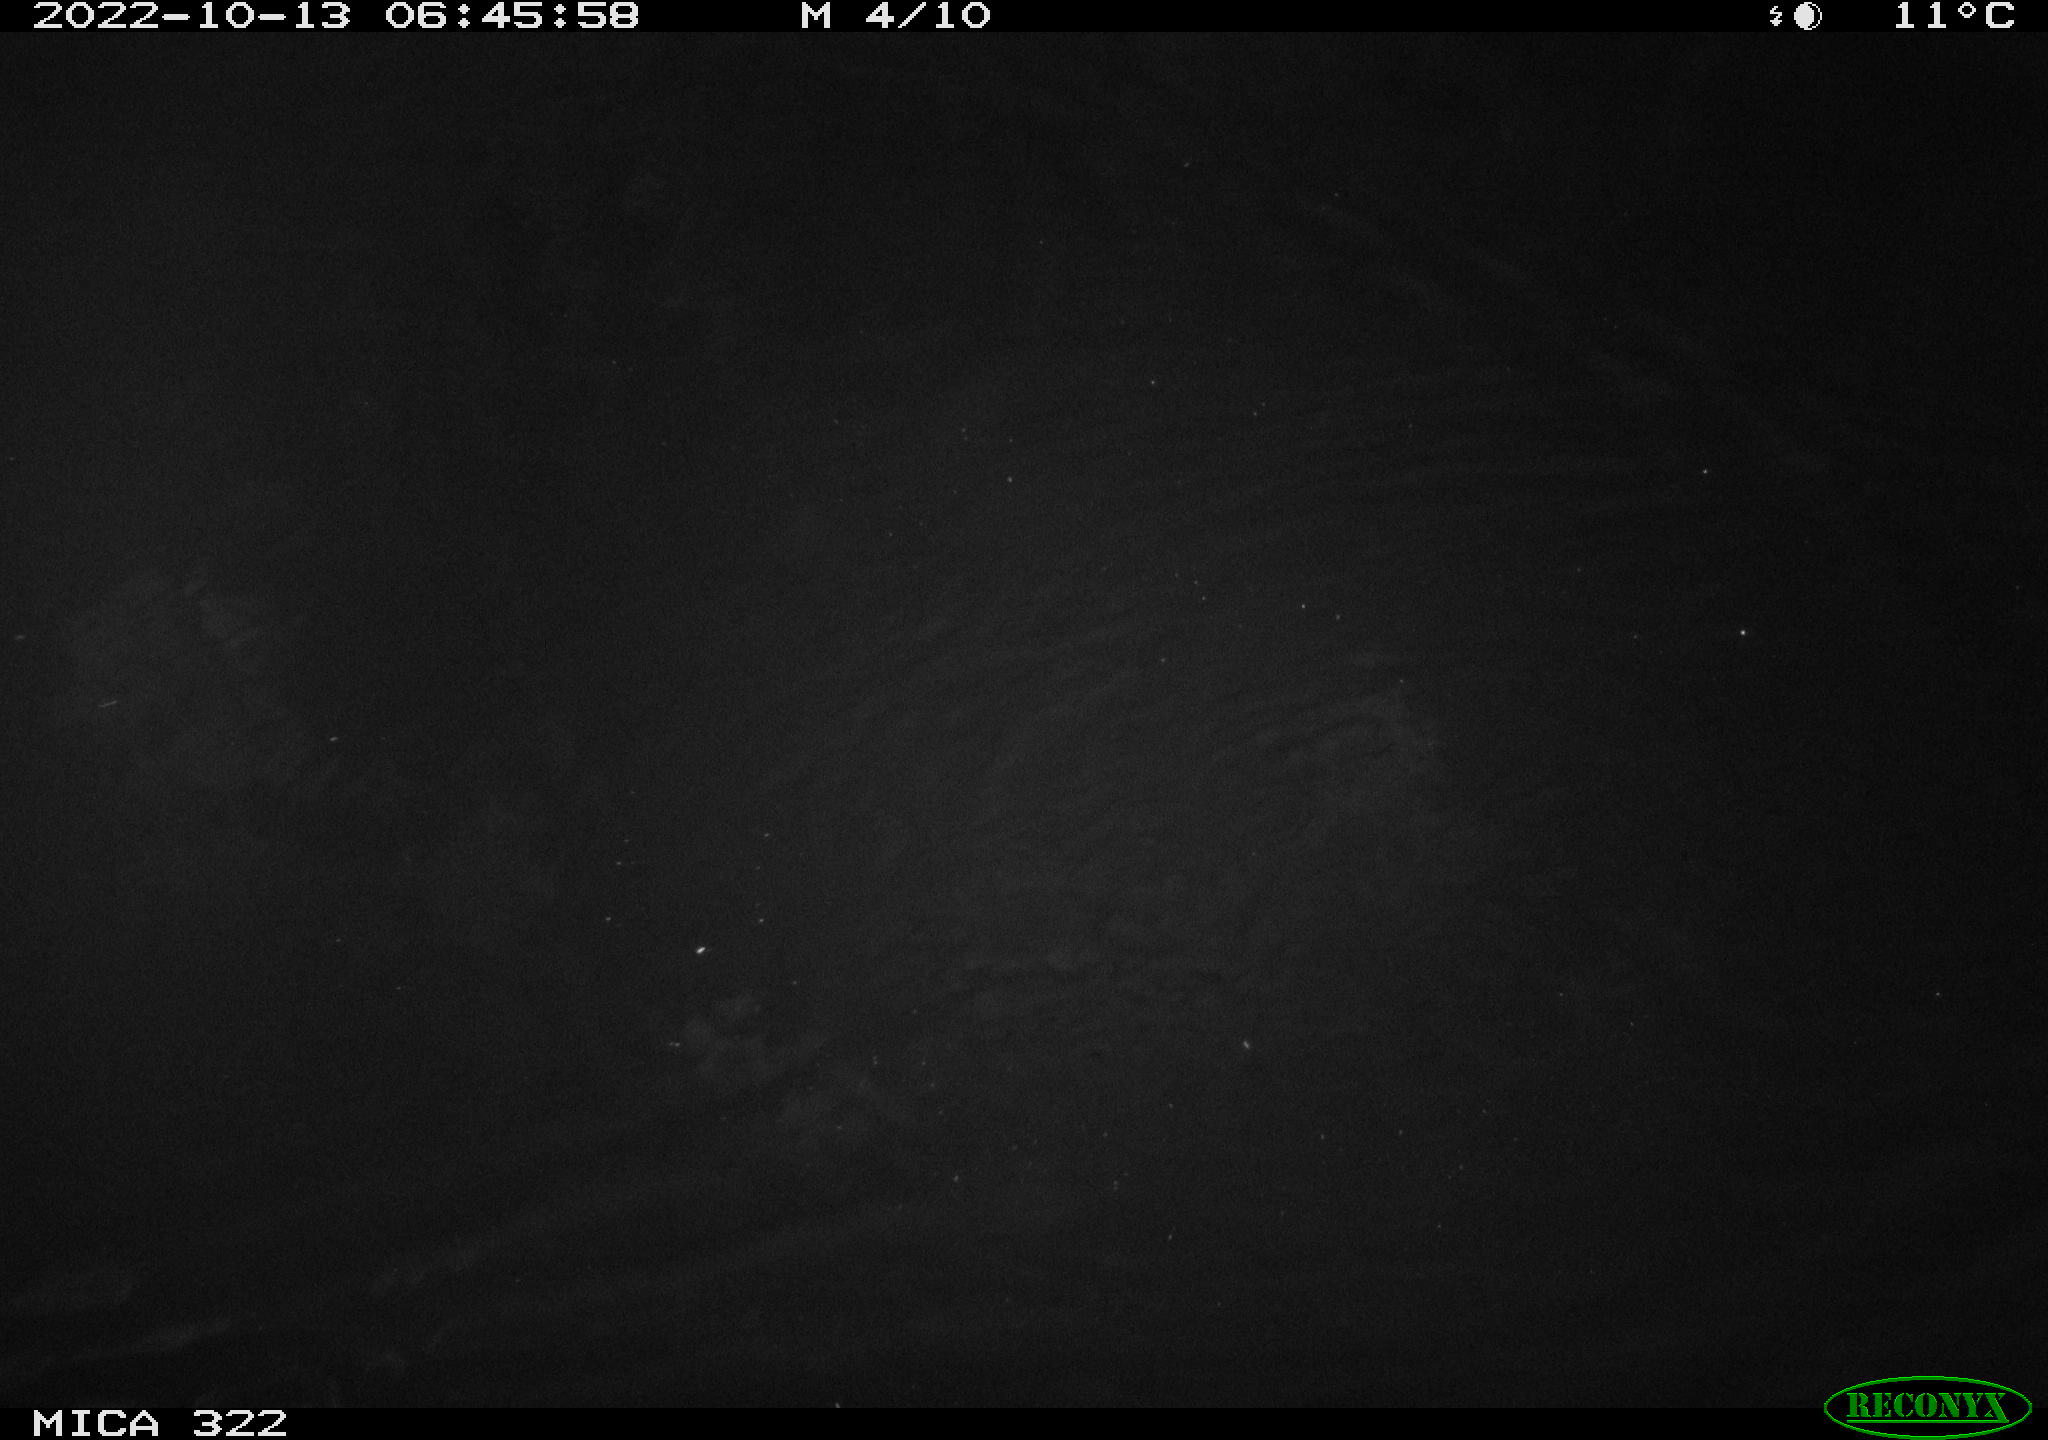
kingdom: Animalia
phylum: Chordata
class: Mammalia
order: Rodentia
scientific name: Rodentia
